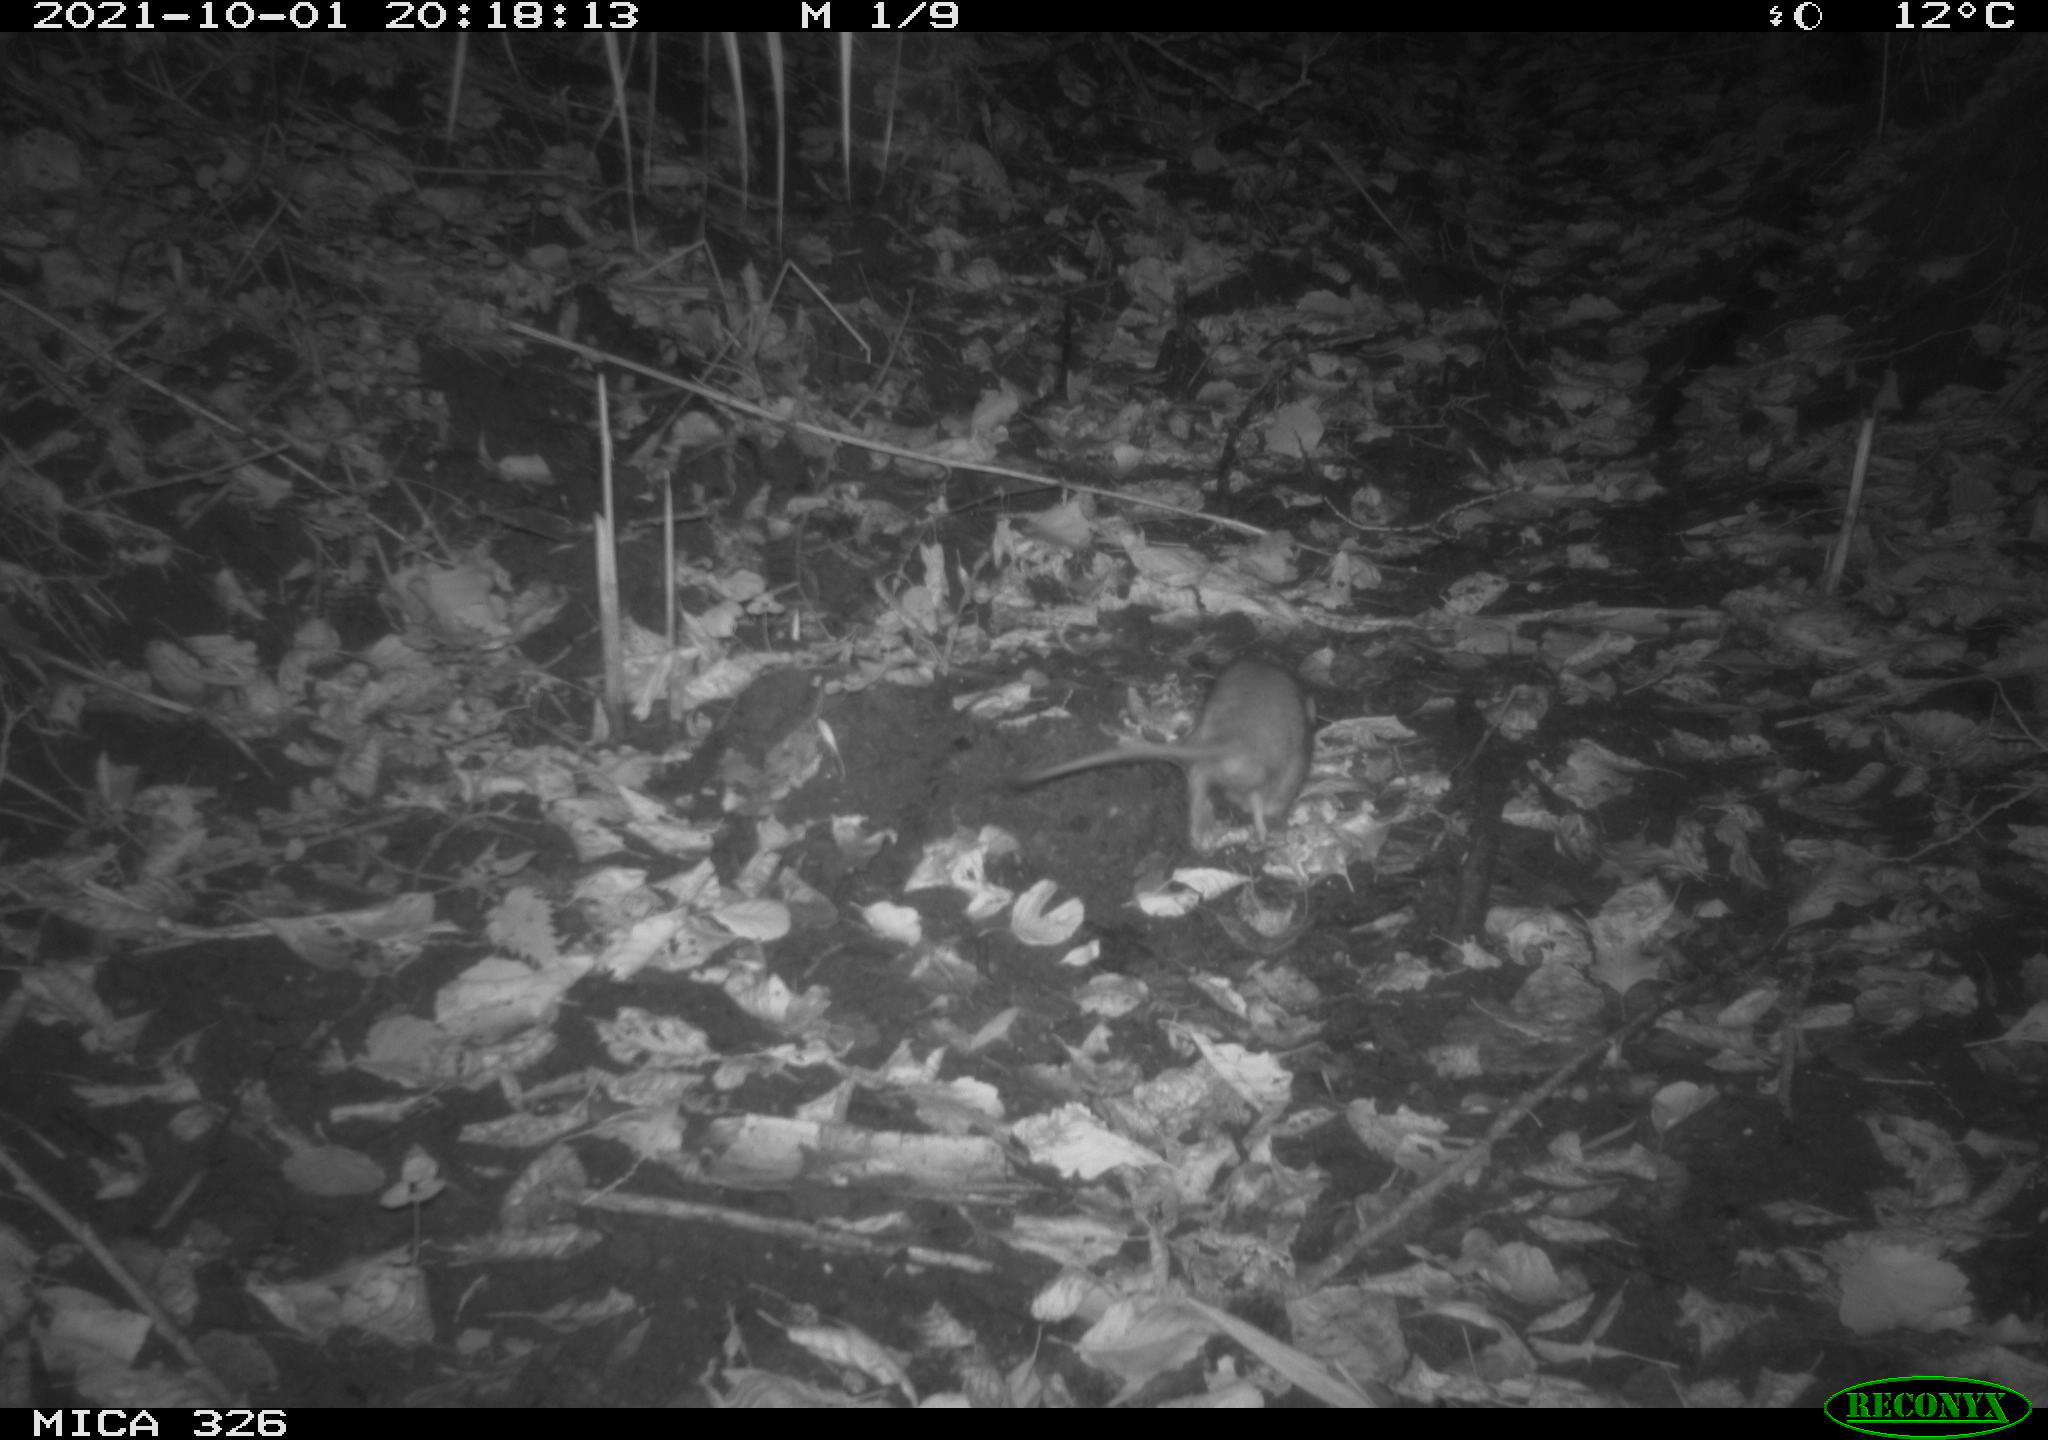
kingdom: Animalia
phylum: Chordata
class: Mammalia
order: Rodentia
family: Muridae
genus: Rattus
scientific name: Rattus norvegicus
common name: Brown rat
